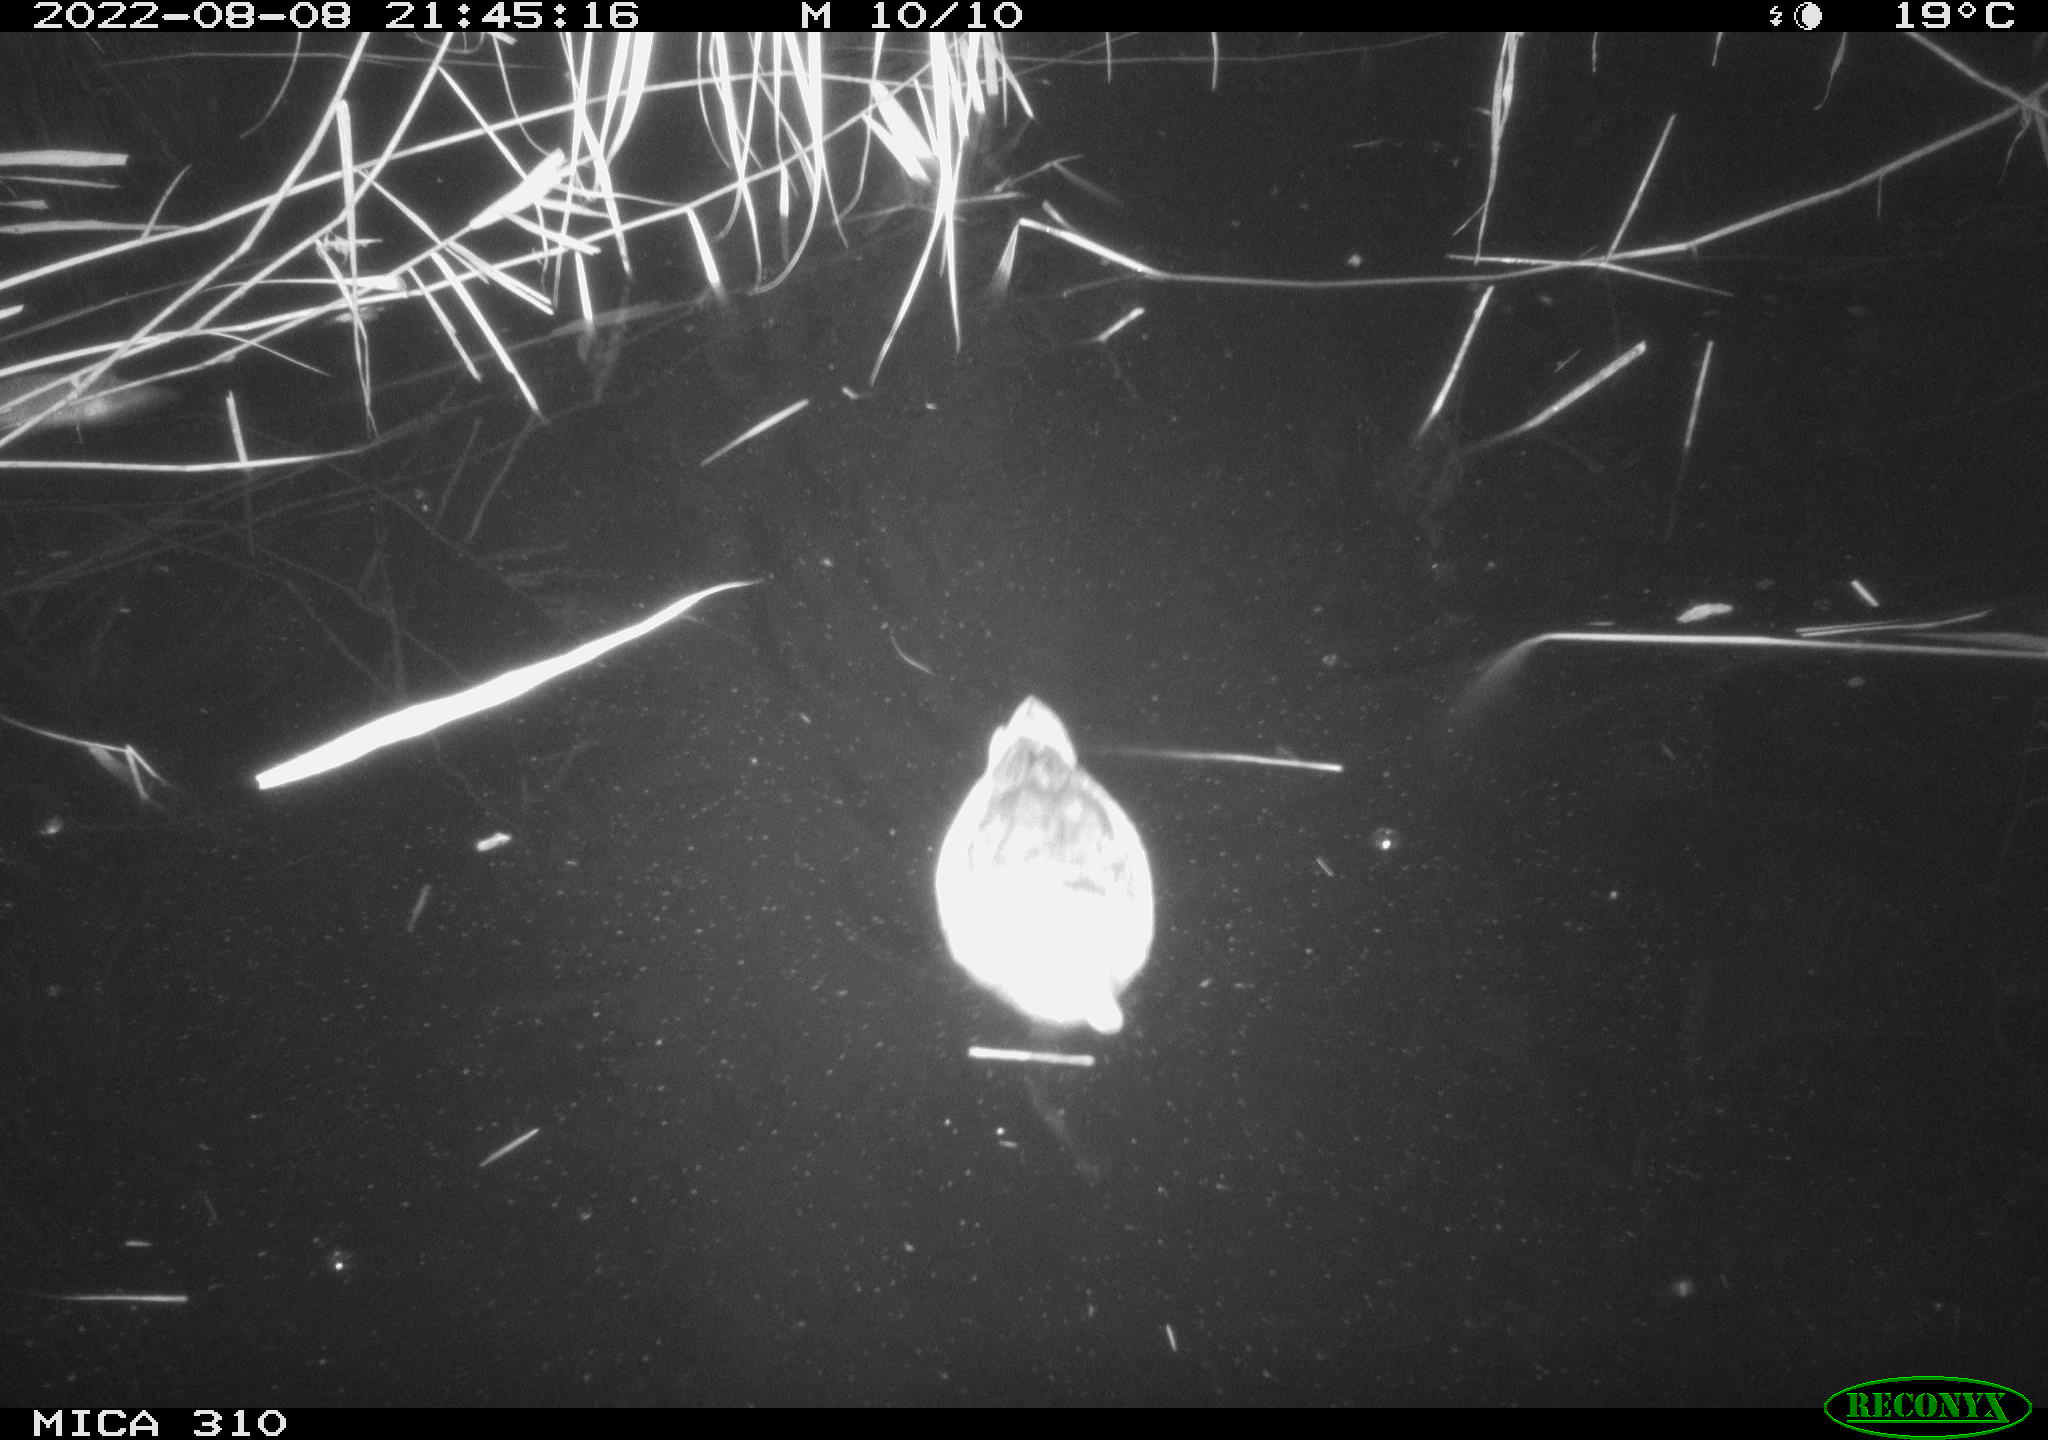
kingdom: Animalia
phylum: Chordata
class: Aves
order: Gruiformes
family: Rallidae
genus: Gallinula
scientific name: Gallinula chloropus
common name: Common moorhen
